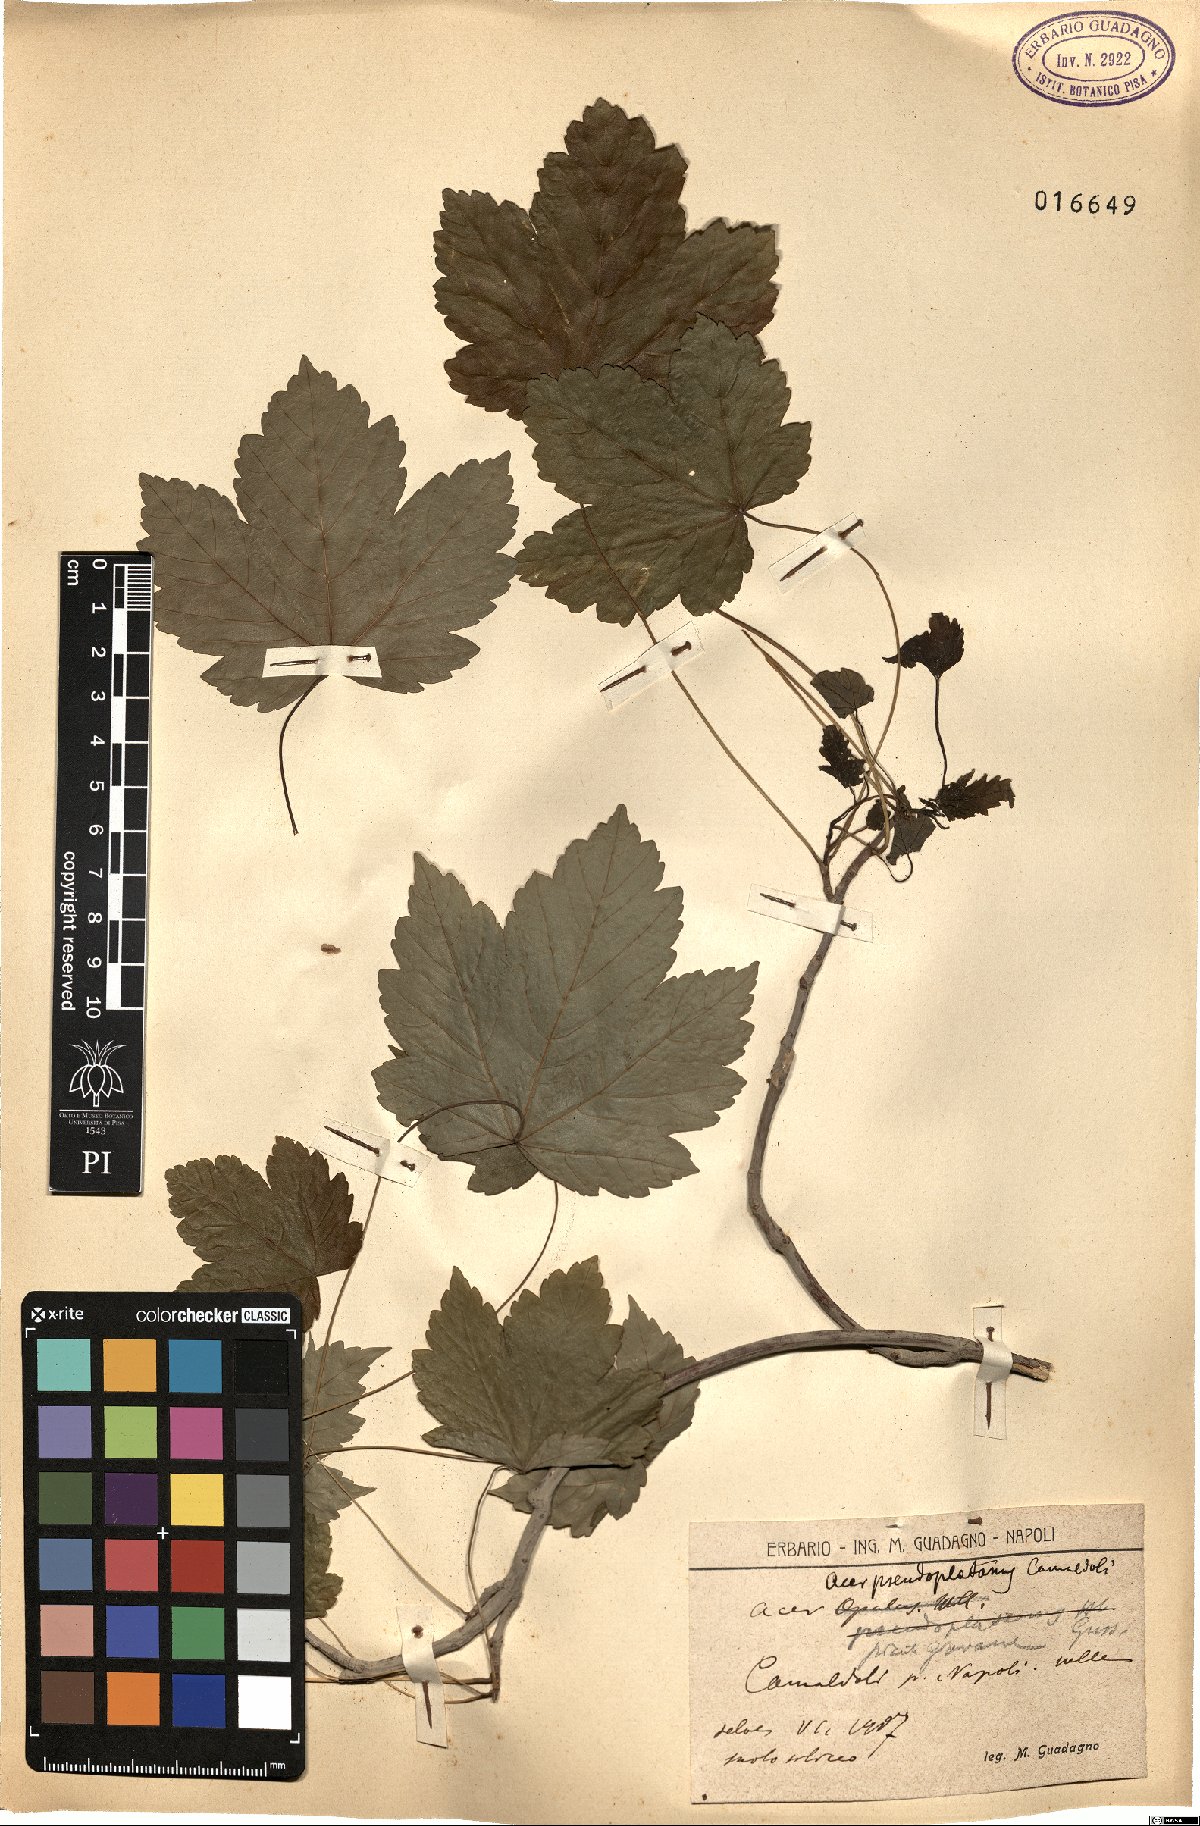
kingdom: Plantae
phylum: Tracheophyta
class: Magnoliopsida
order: Sapindales
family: Sapindaceae
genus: Acer
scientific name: Acer pseudoplatanus
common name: Sycamore
